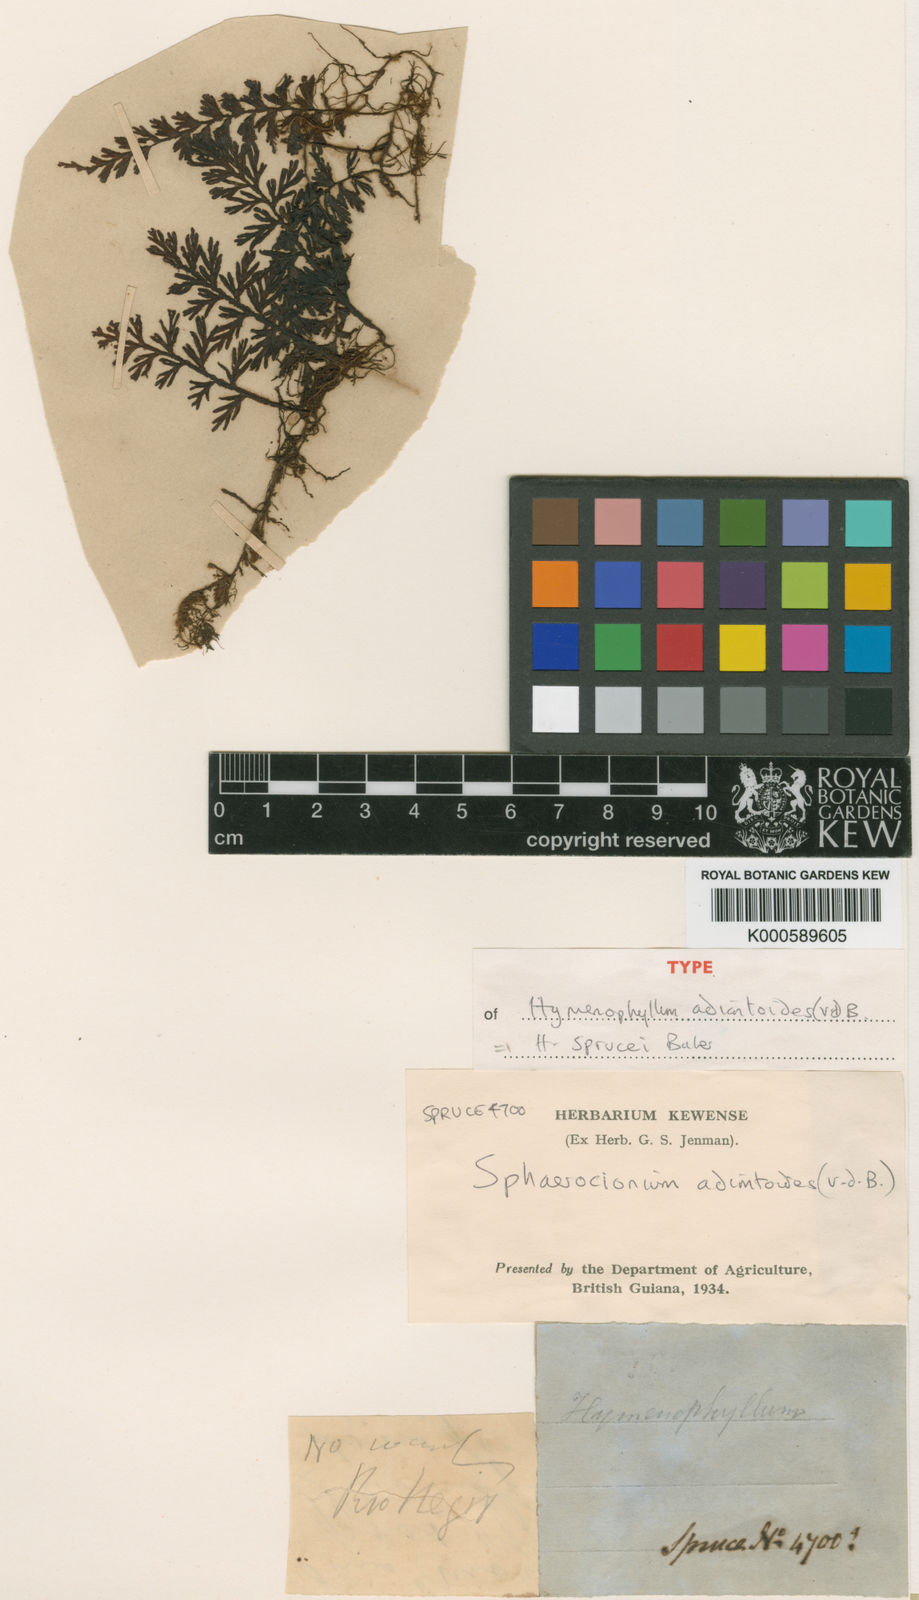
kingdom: Plantae
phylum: Tracheophyta
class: Polypodiopsida
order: Hymenophyllales
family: Hymenophyllaceae
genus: Hymenophyllum
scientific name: Hymenophyllum adiantoides
